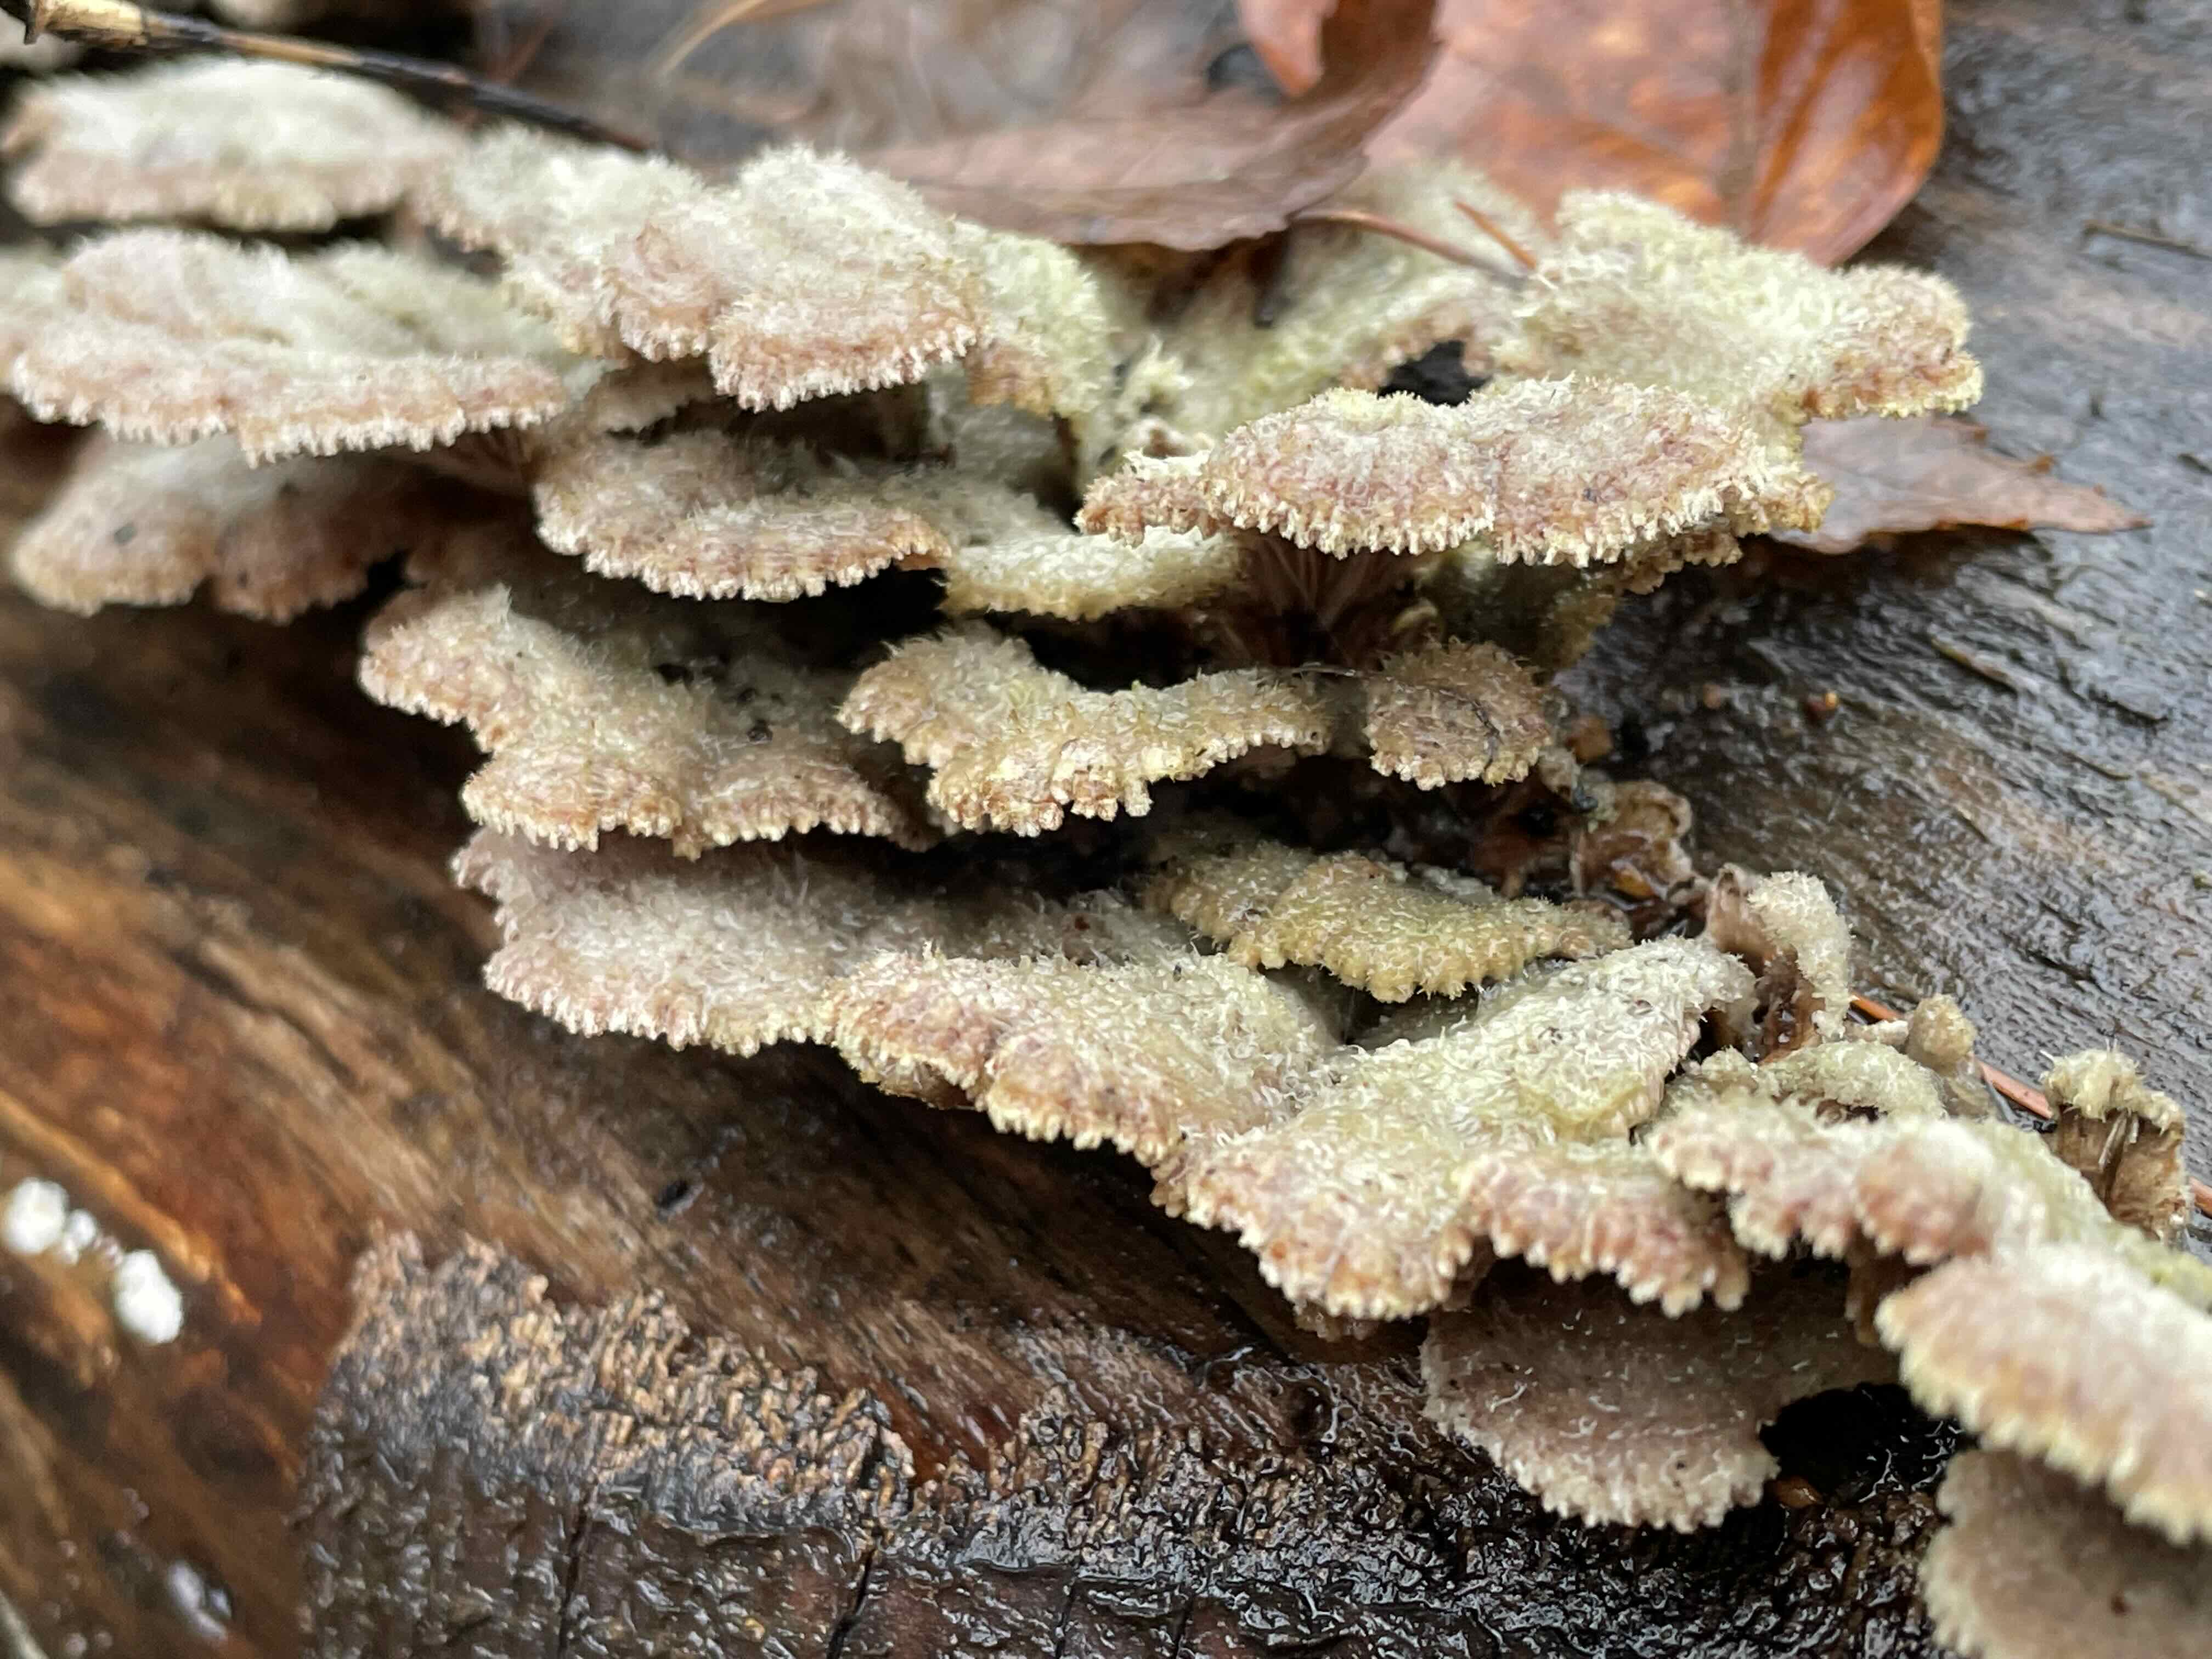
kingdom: Fungi
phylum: Basidiomycota
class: Agaricomycetes
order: Agaricales
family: Schizophyllaceae
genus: Schizophyllum
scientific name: Schizophyllum commune
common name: kløvblad
